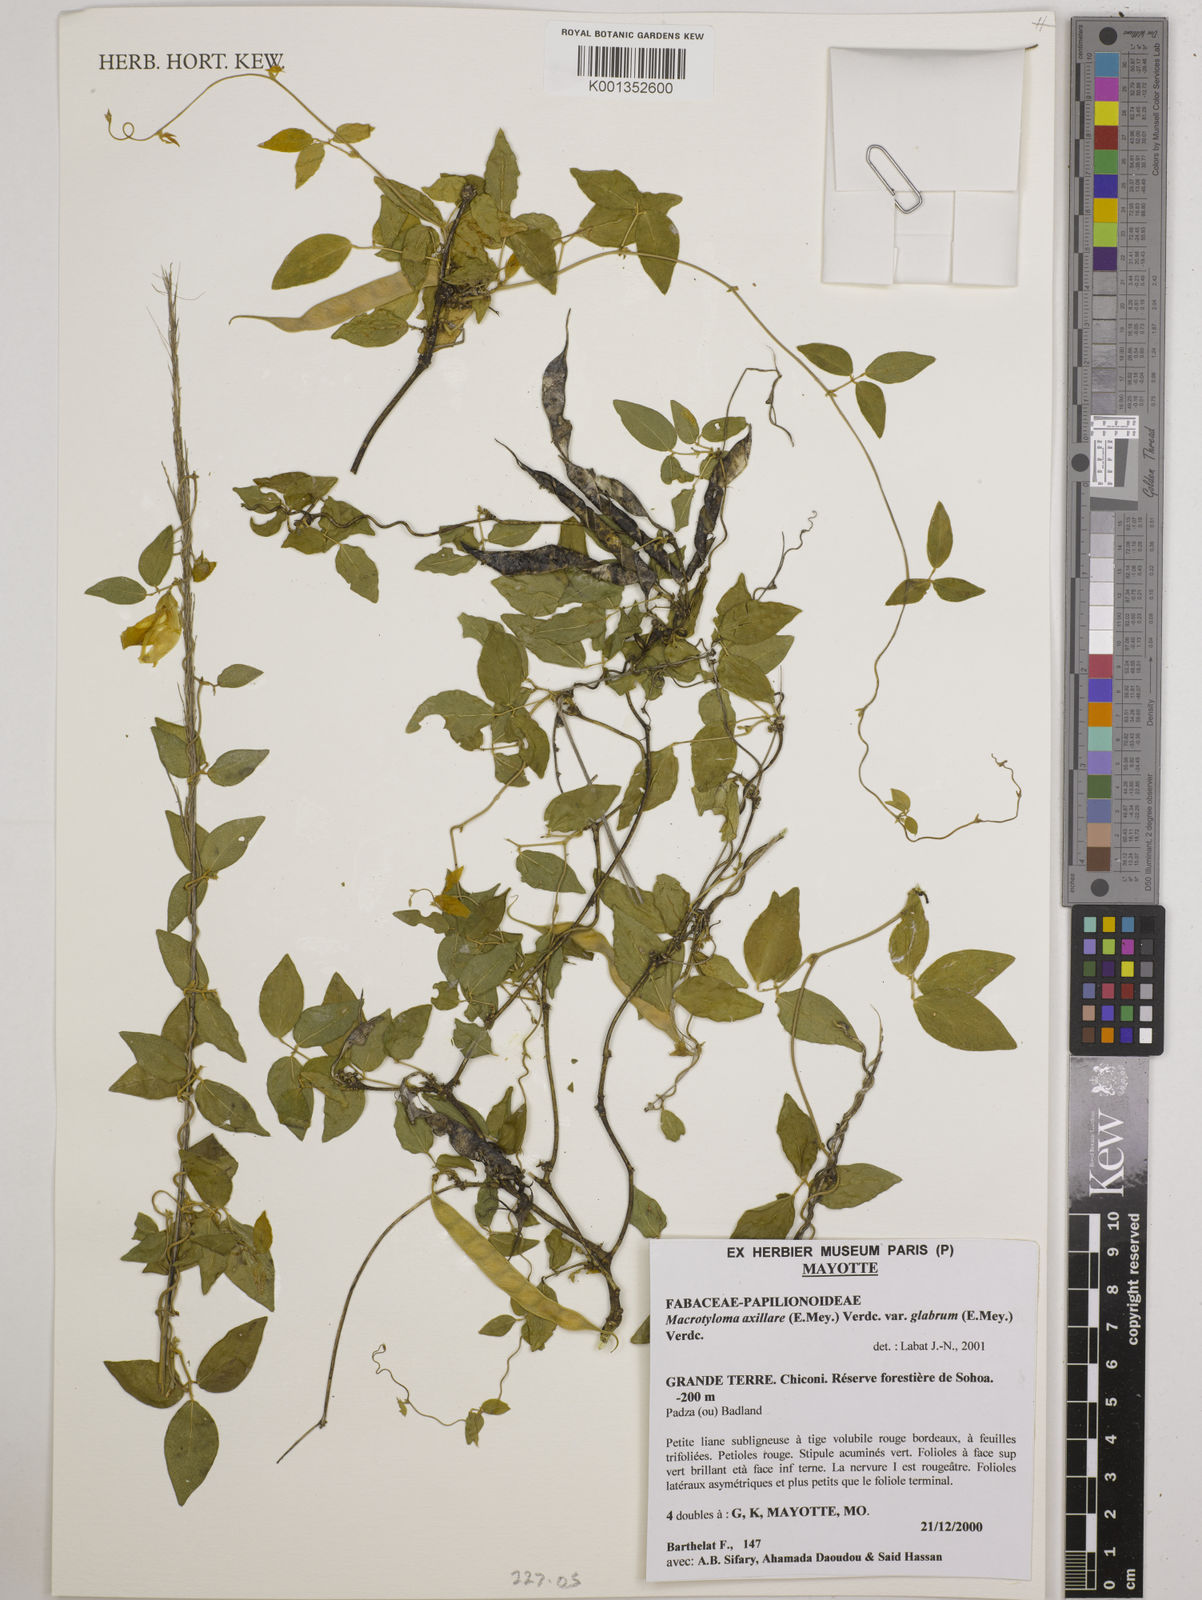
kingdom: Plantae
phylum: Tracheophyta
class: Magnoliopsida
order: Fabales
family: Fabaceae
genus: Macrotyloma
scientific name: Macrotyloma
